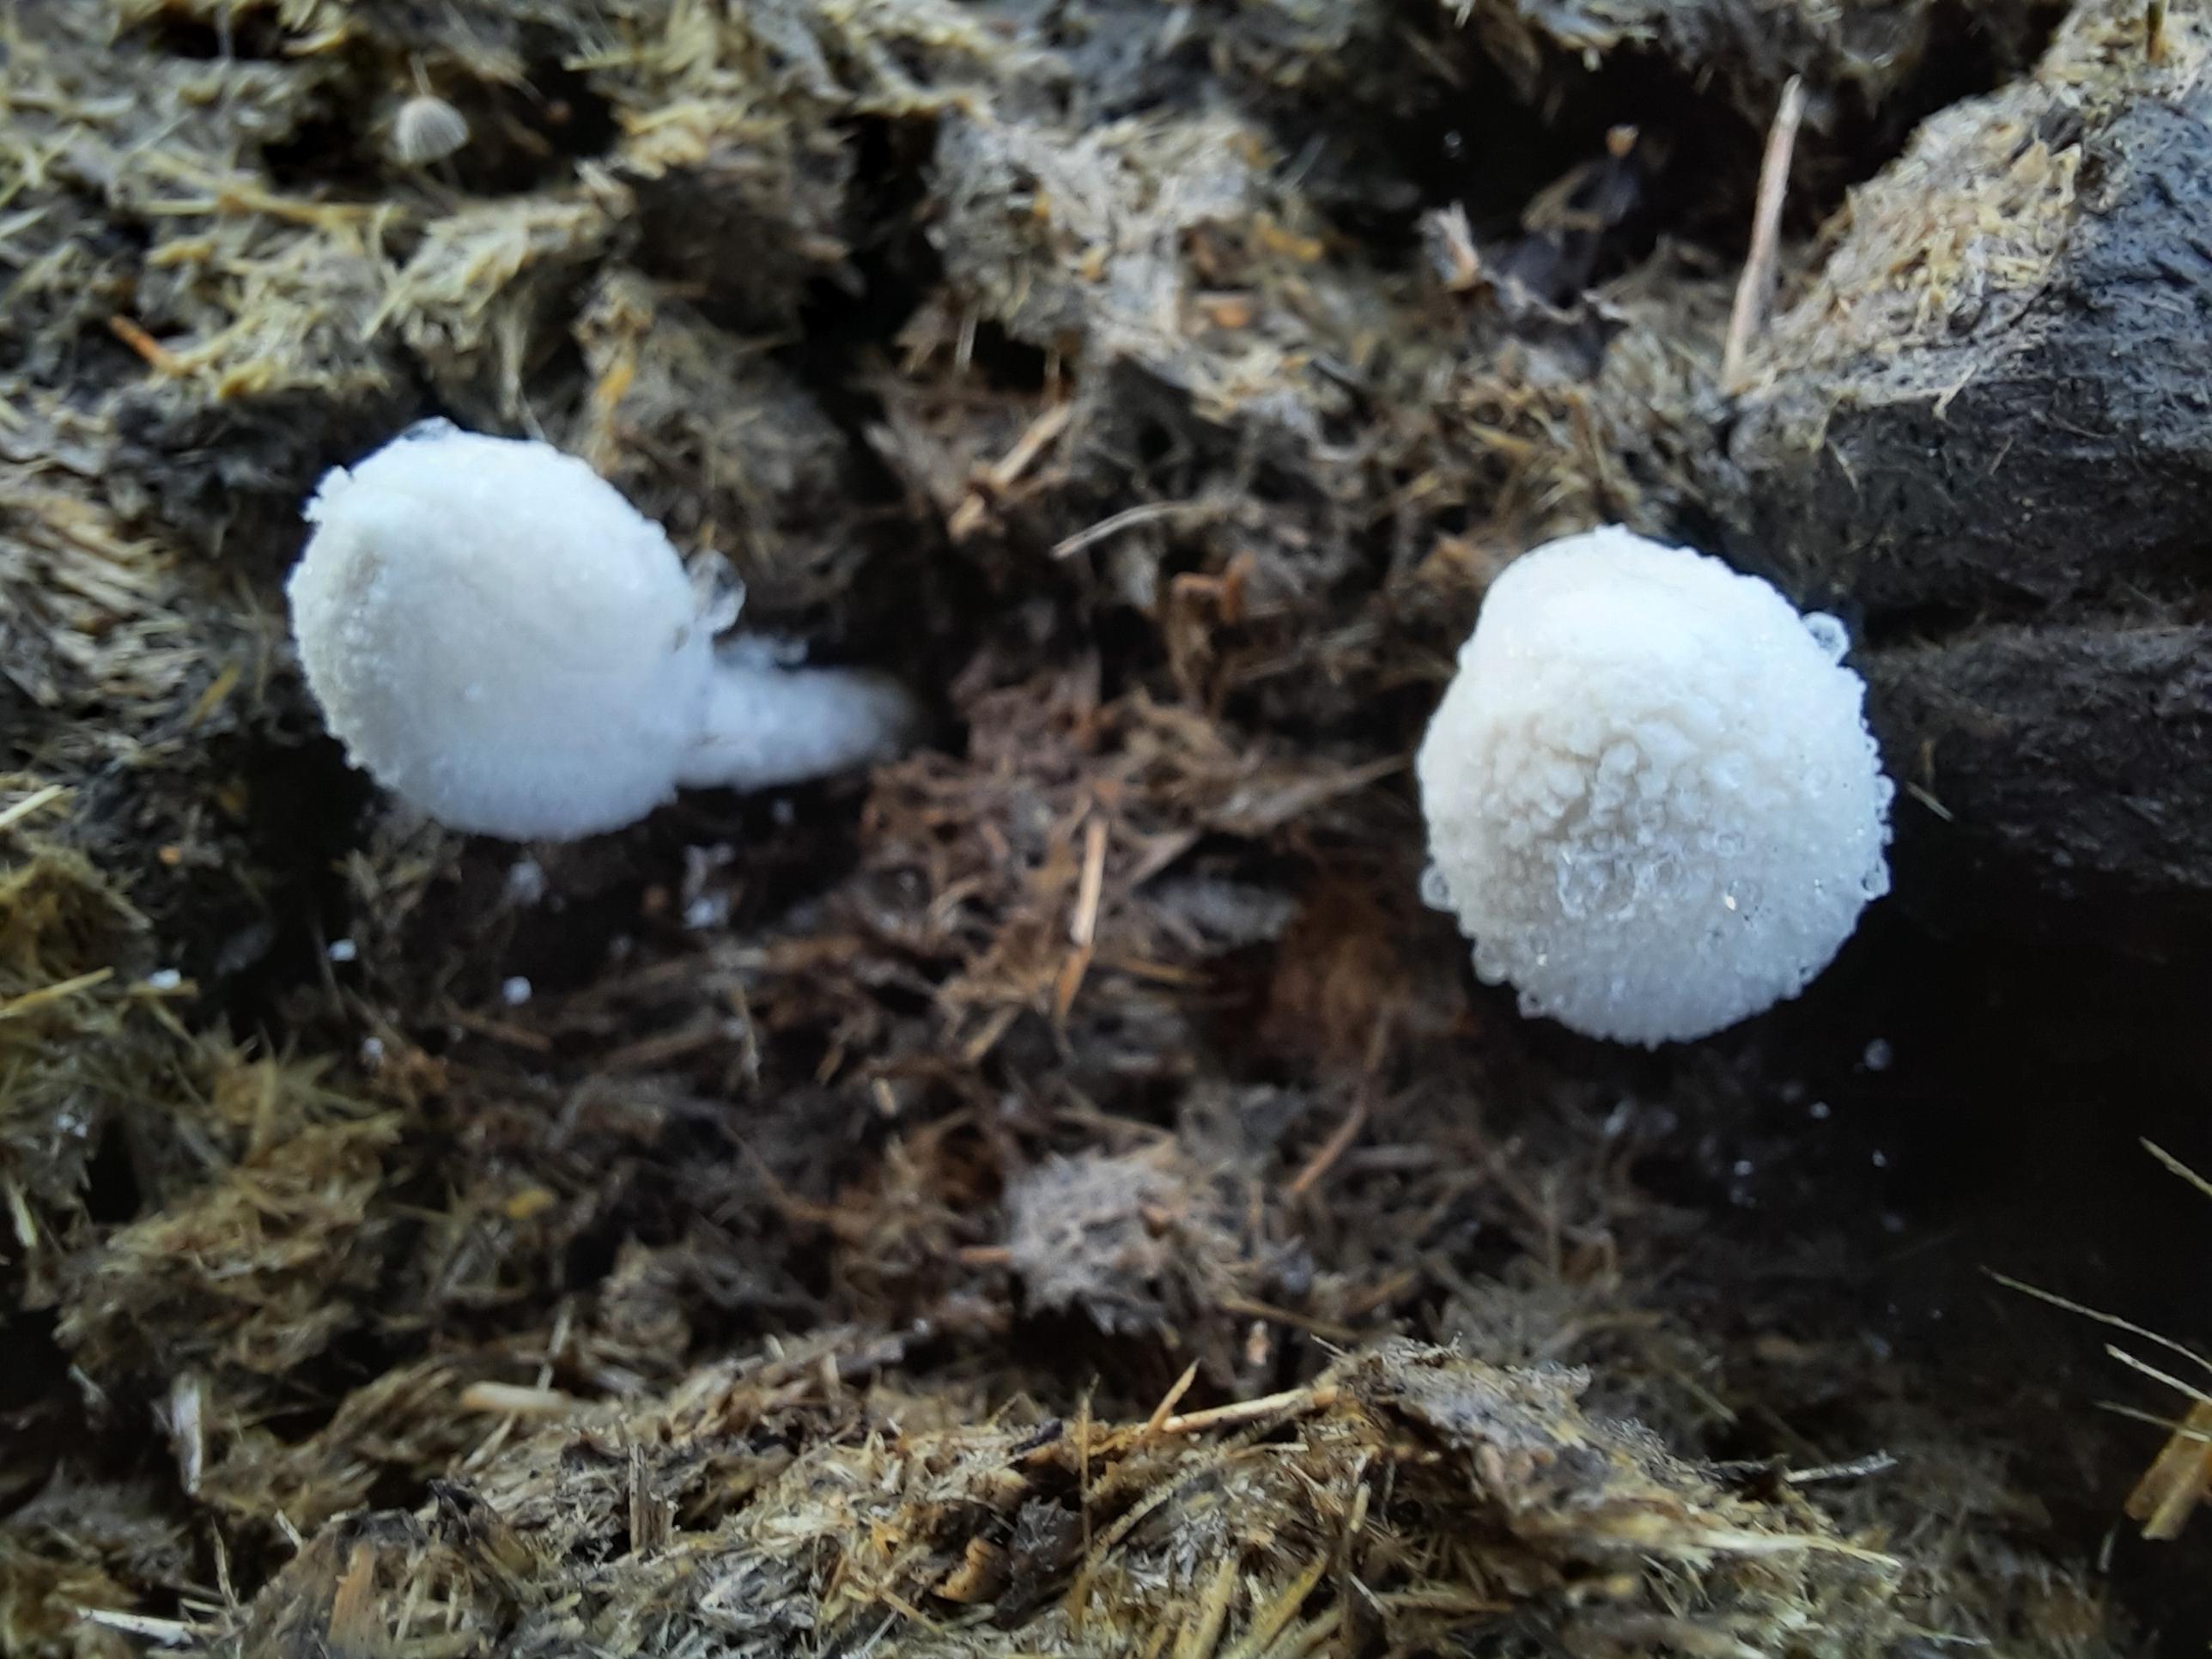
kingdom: Fungi
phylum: Basidiomycota
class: Agaricomycetes
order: Agaricales
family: Psathyrellaceae
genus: Coprinopsis
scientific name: Coprinopsis nivea
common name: snehvid blækhat
